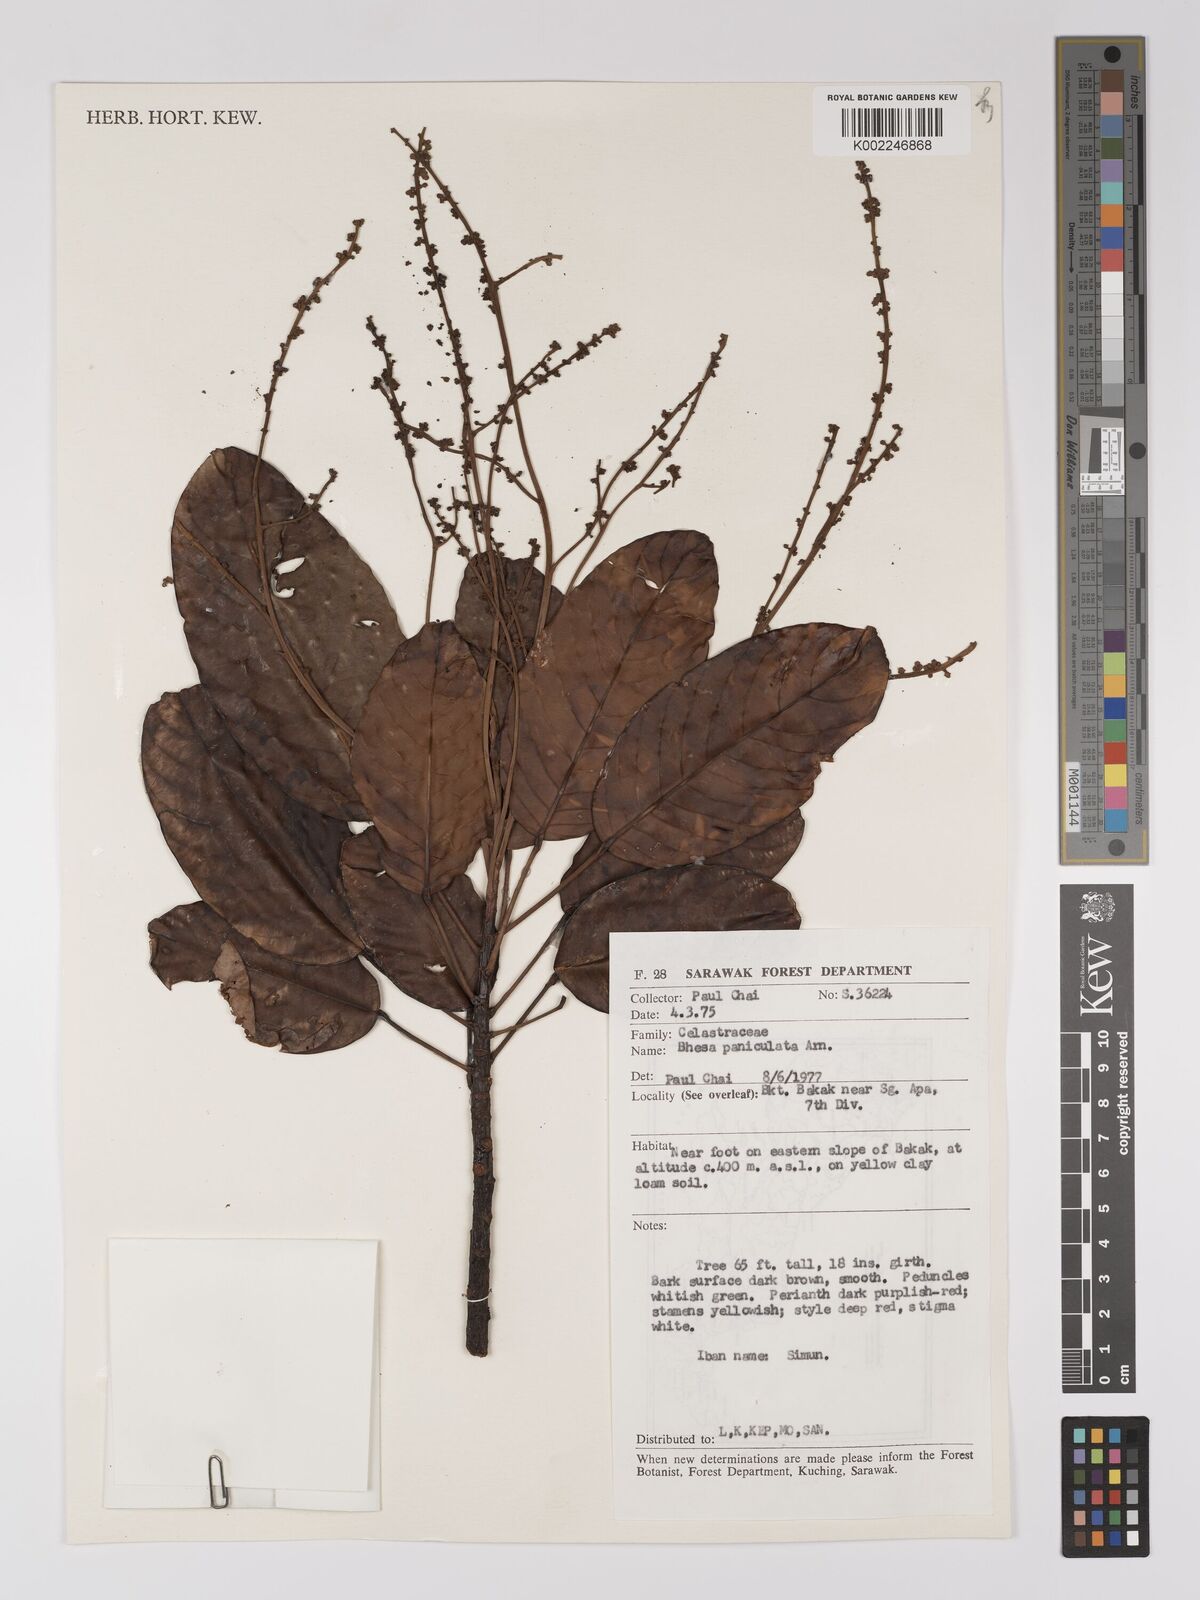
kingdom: Plantae
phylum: Tracheophyta
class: Magnoliopsida
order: Malpighiales
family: Centroplacaceae
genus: Bhesa
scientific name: Bhesa paniculata
